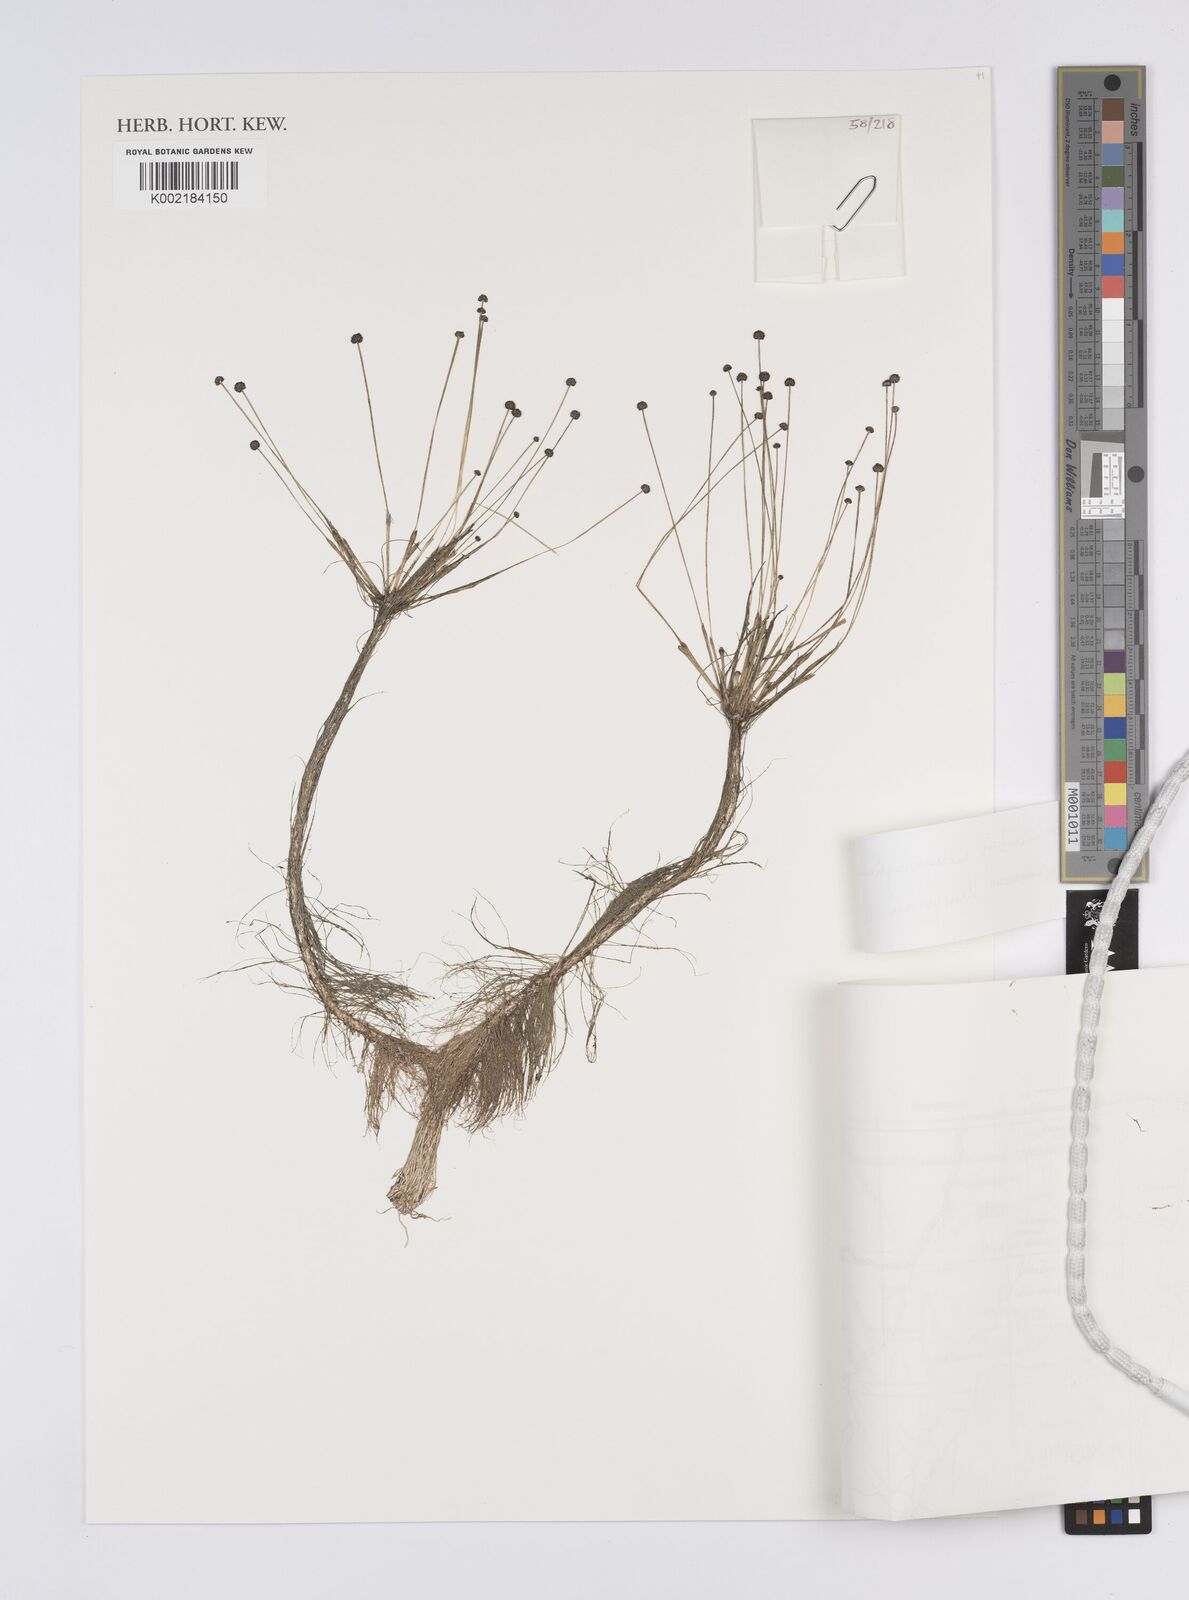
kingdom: Plantae
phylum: Tracheophyta
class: Liliopsida
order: Poales
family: Eriocaulaceae
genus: Eriocaulon
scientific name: Eriocaulon setaceum
